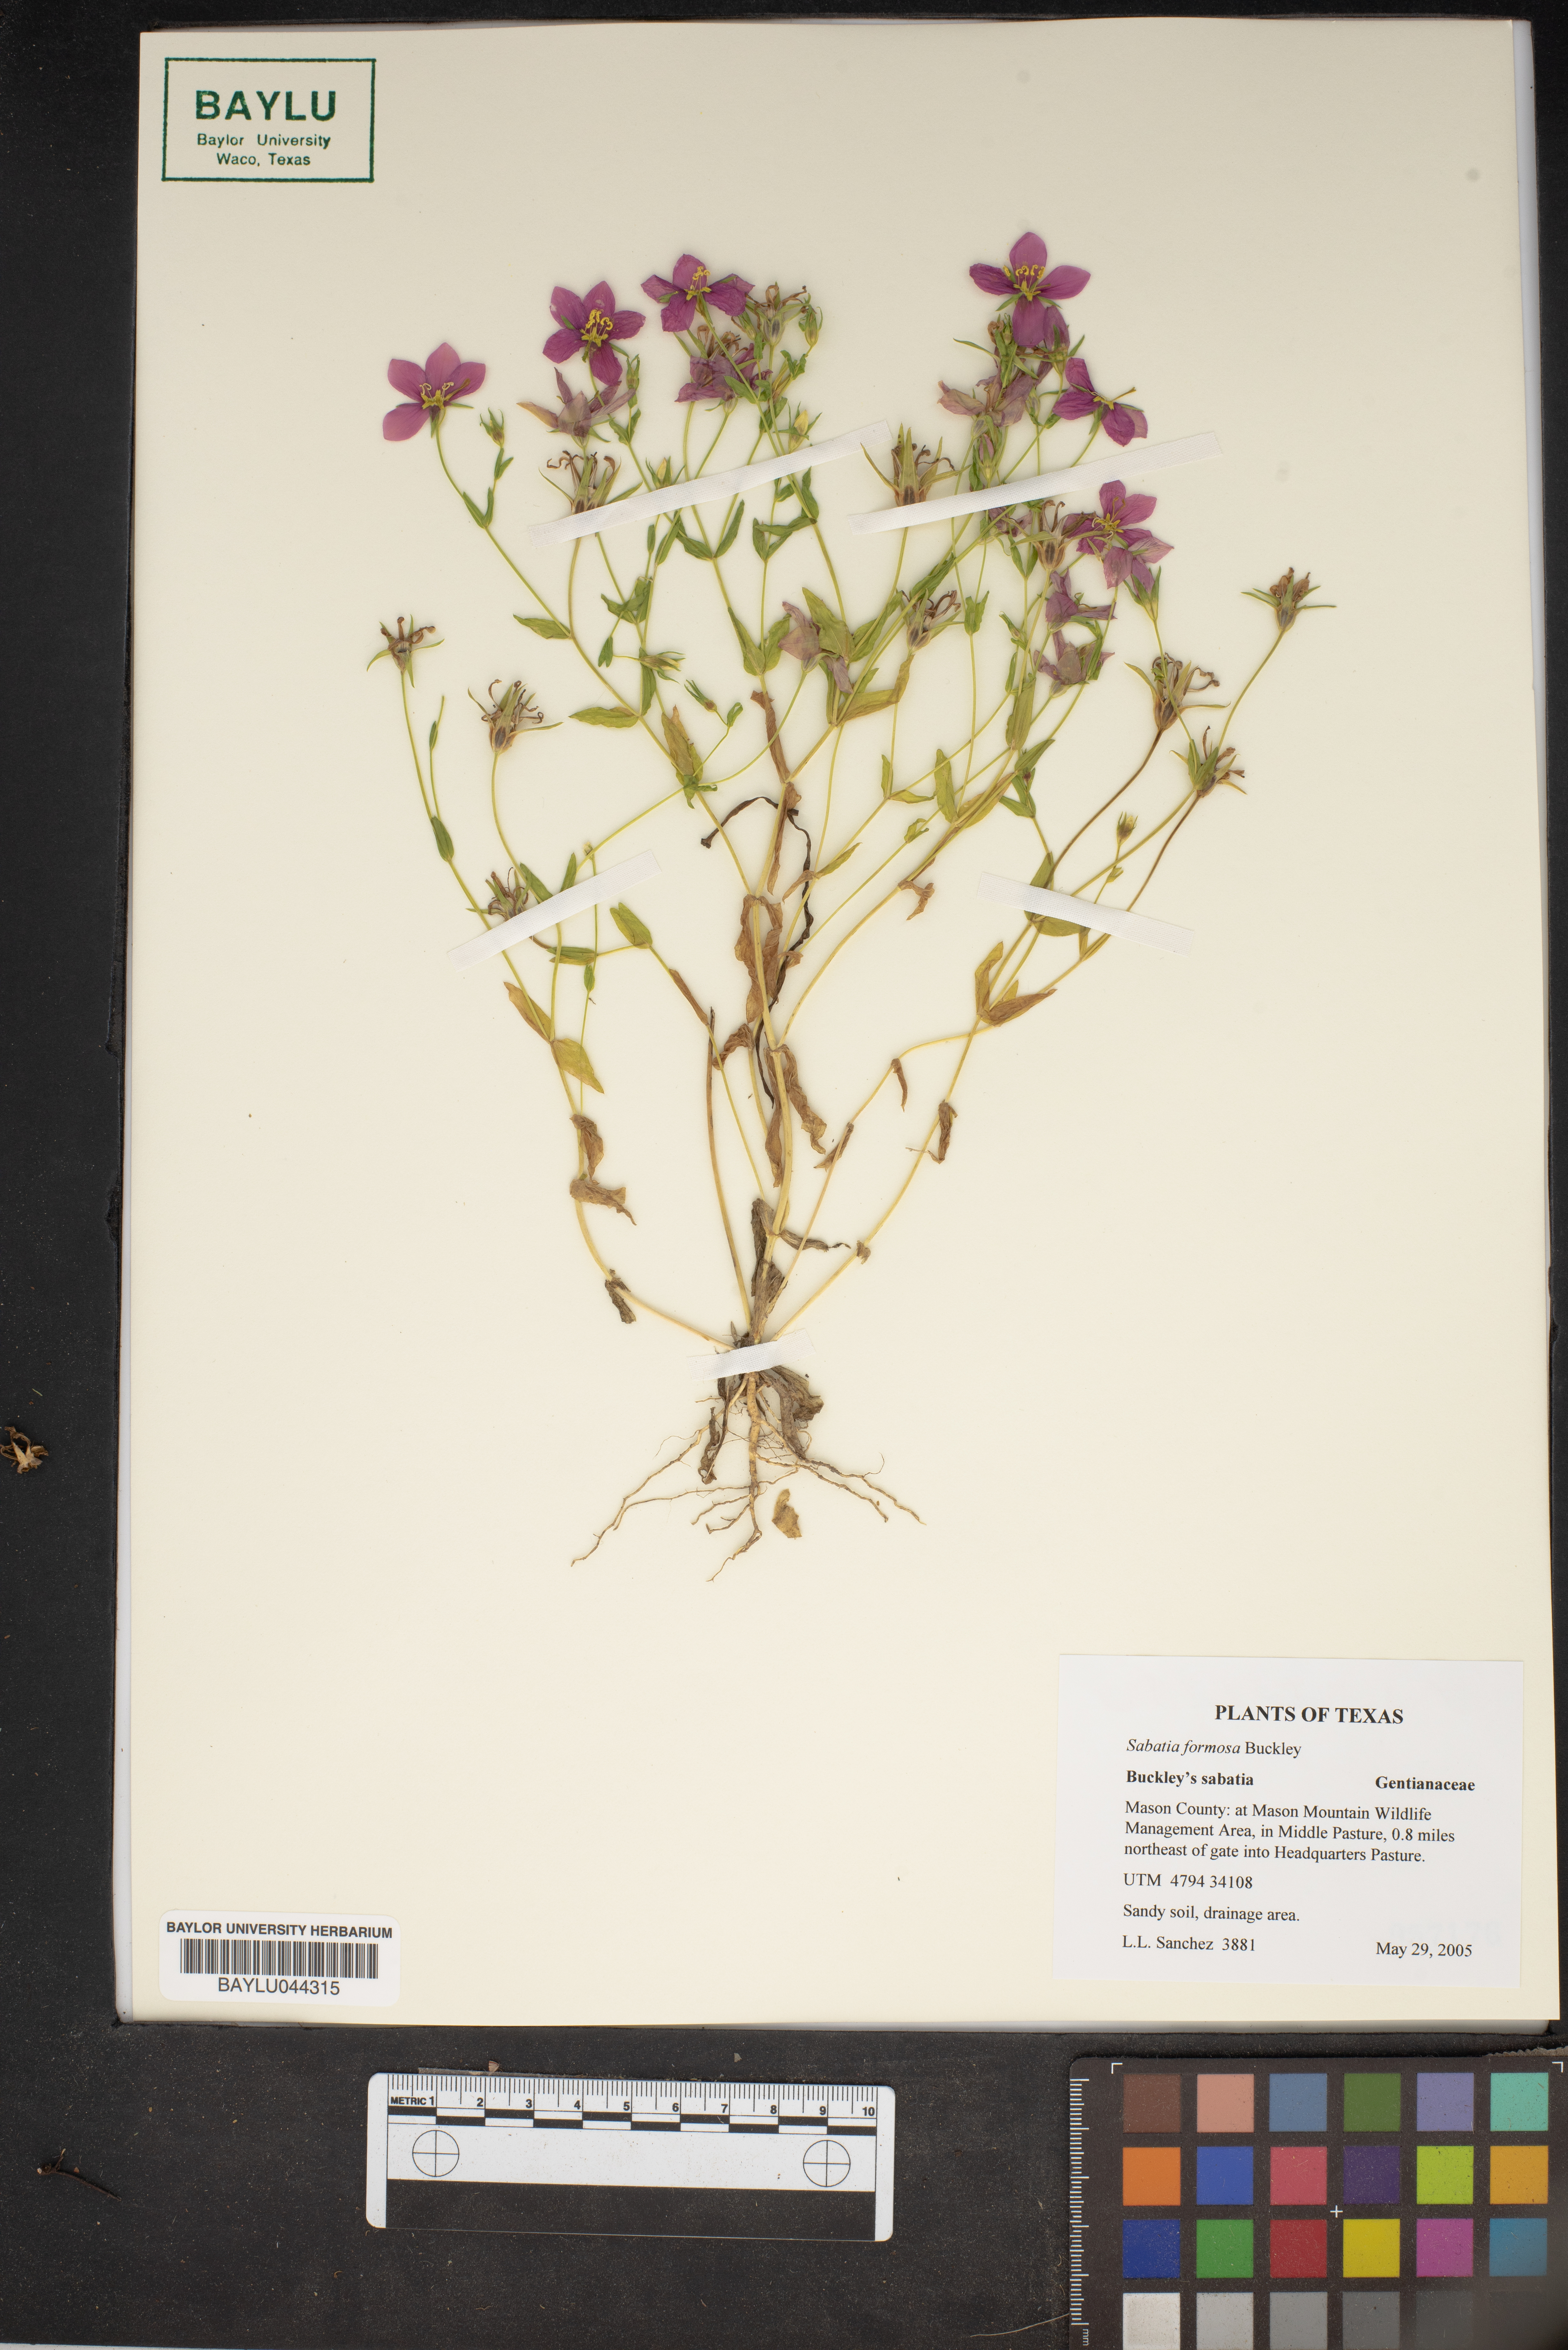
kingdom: Plantae
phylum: Tracheophyta
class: Magnoliopsida
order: Gentianales
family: Gentianaceae
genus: Sabatia
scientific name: Sabatia formosa
